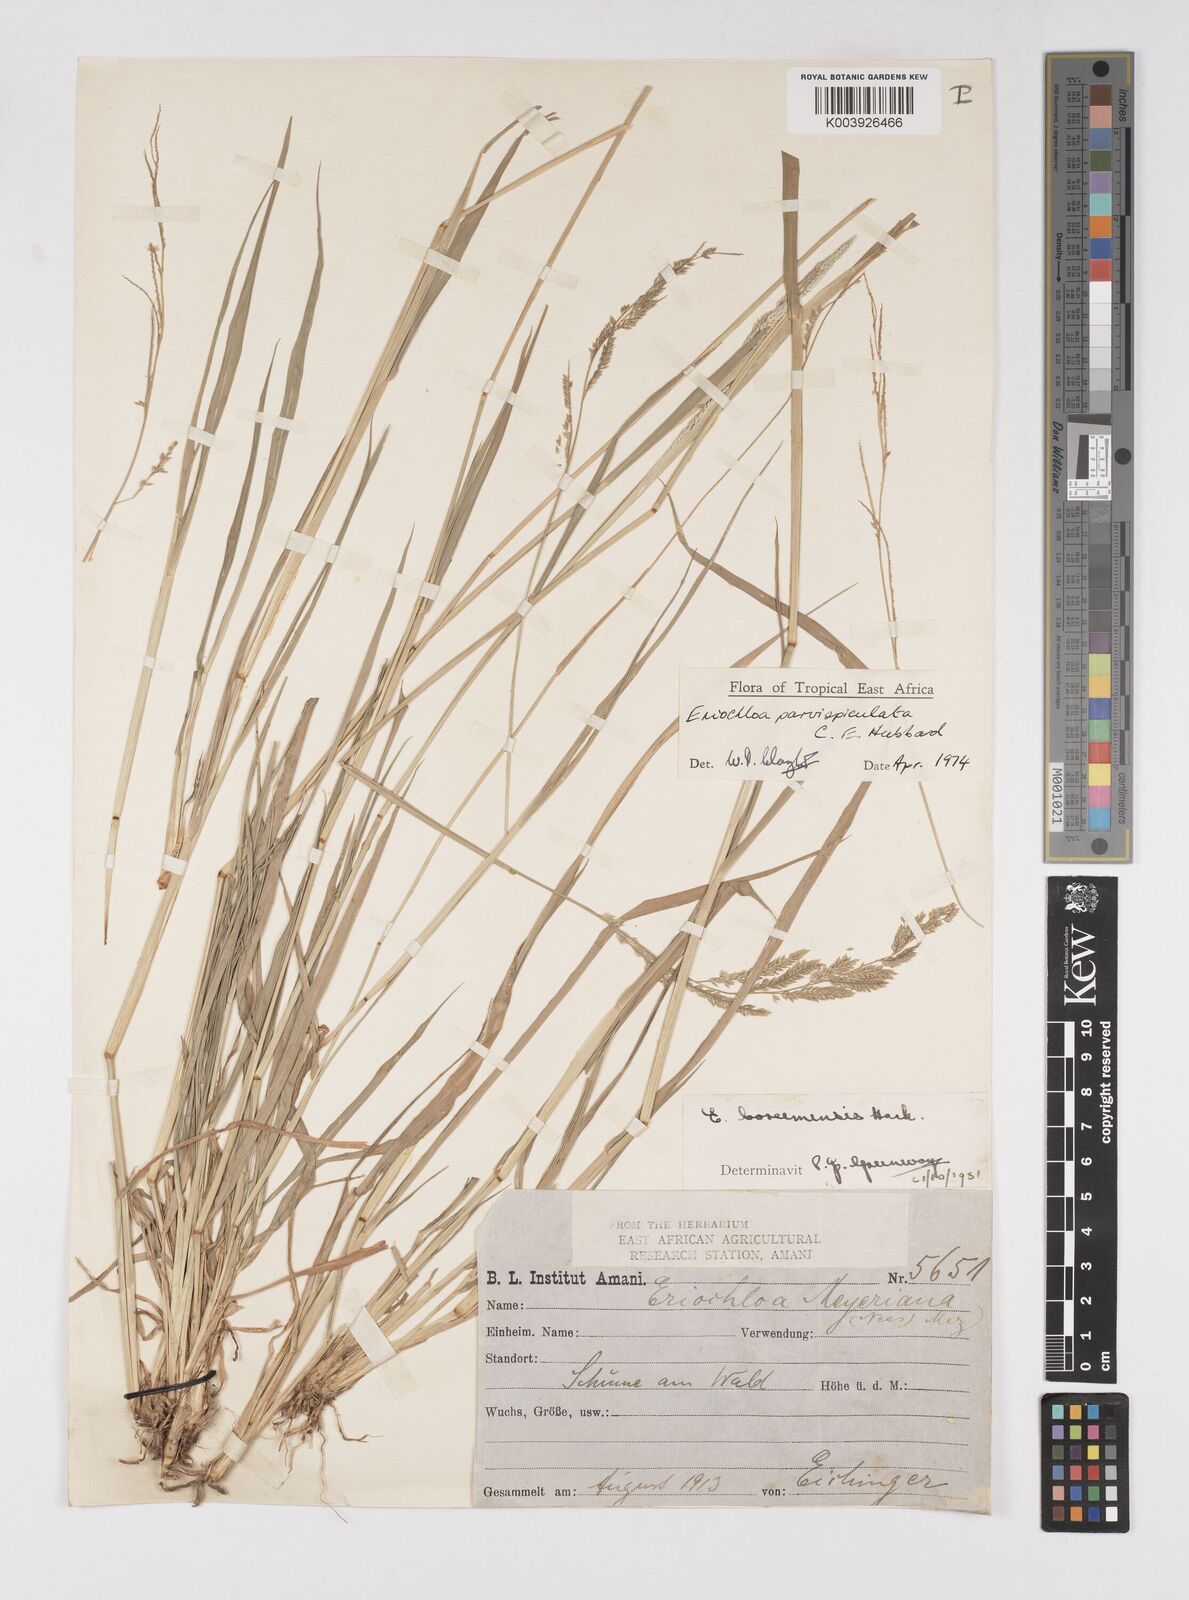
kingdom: Plantae
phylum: Tracheophyta
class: Liliopsida
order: Poales
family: Poaceae
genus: Eriochloa
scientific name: Eriochloa parvispiculata
